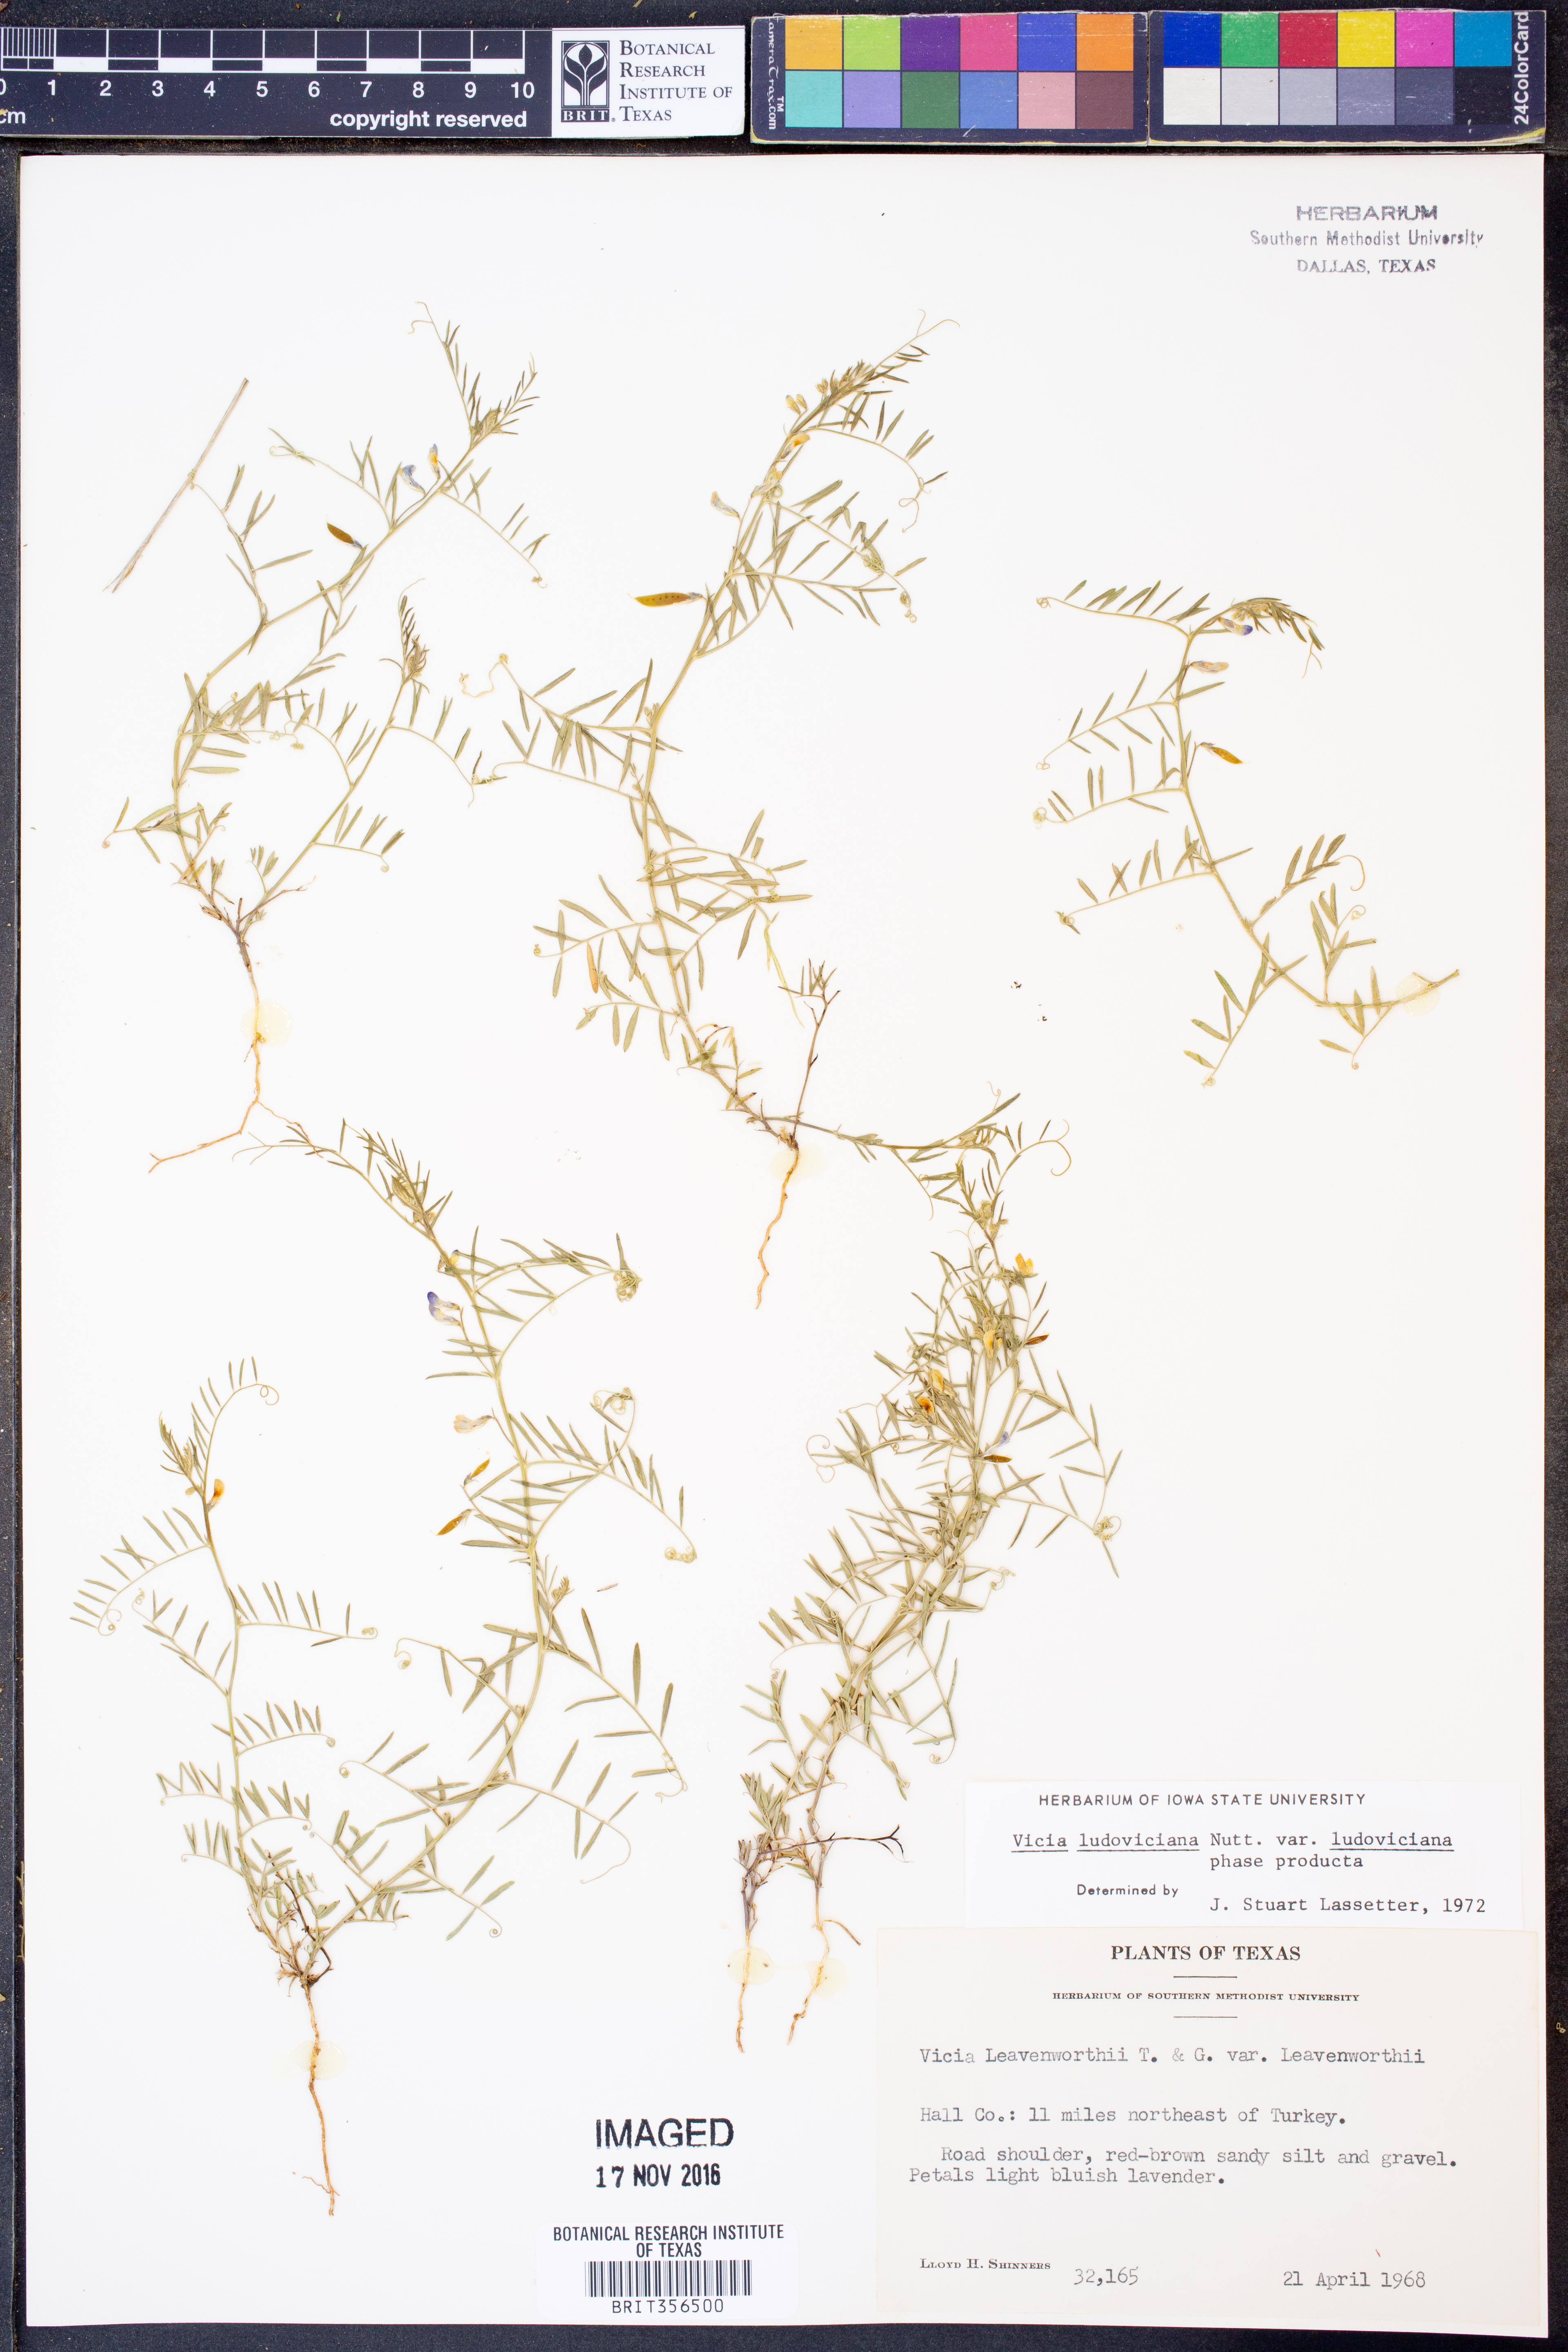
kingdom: Plantae
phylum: Tracheophyta
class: Magnoliopsida
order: Fabales
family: Fabaceae
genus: Vicia
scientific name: Vicia ludoviciana
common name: Louisiana vetch
